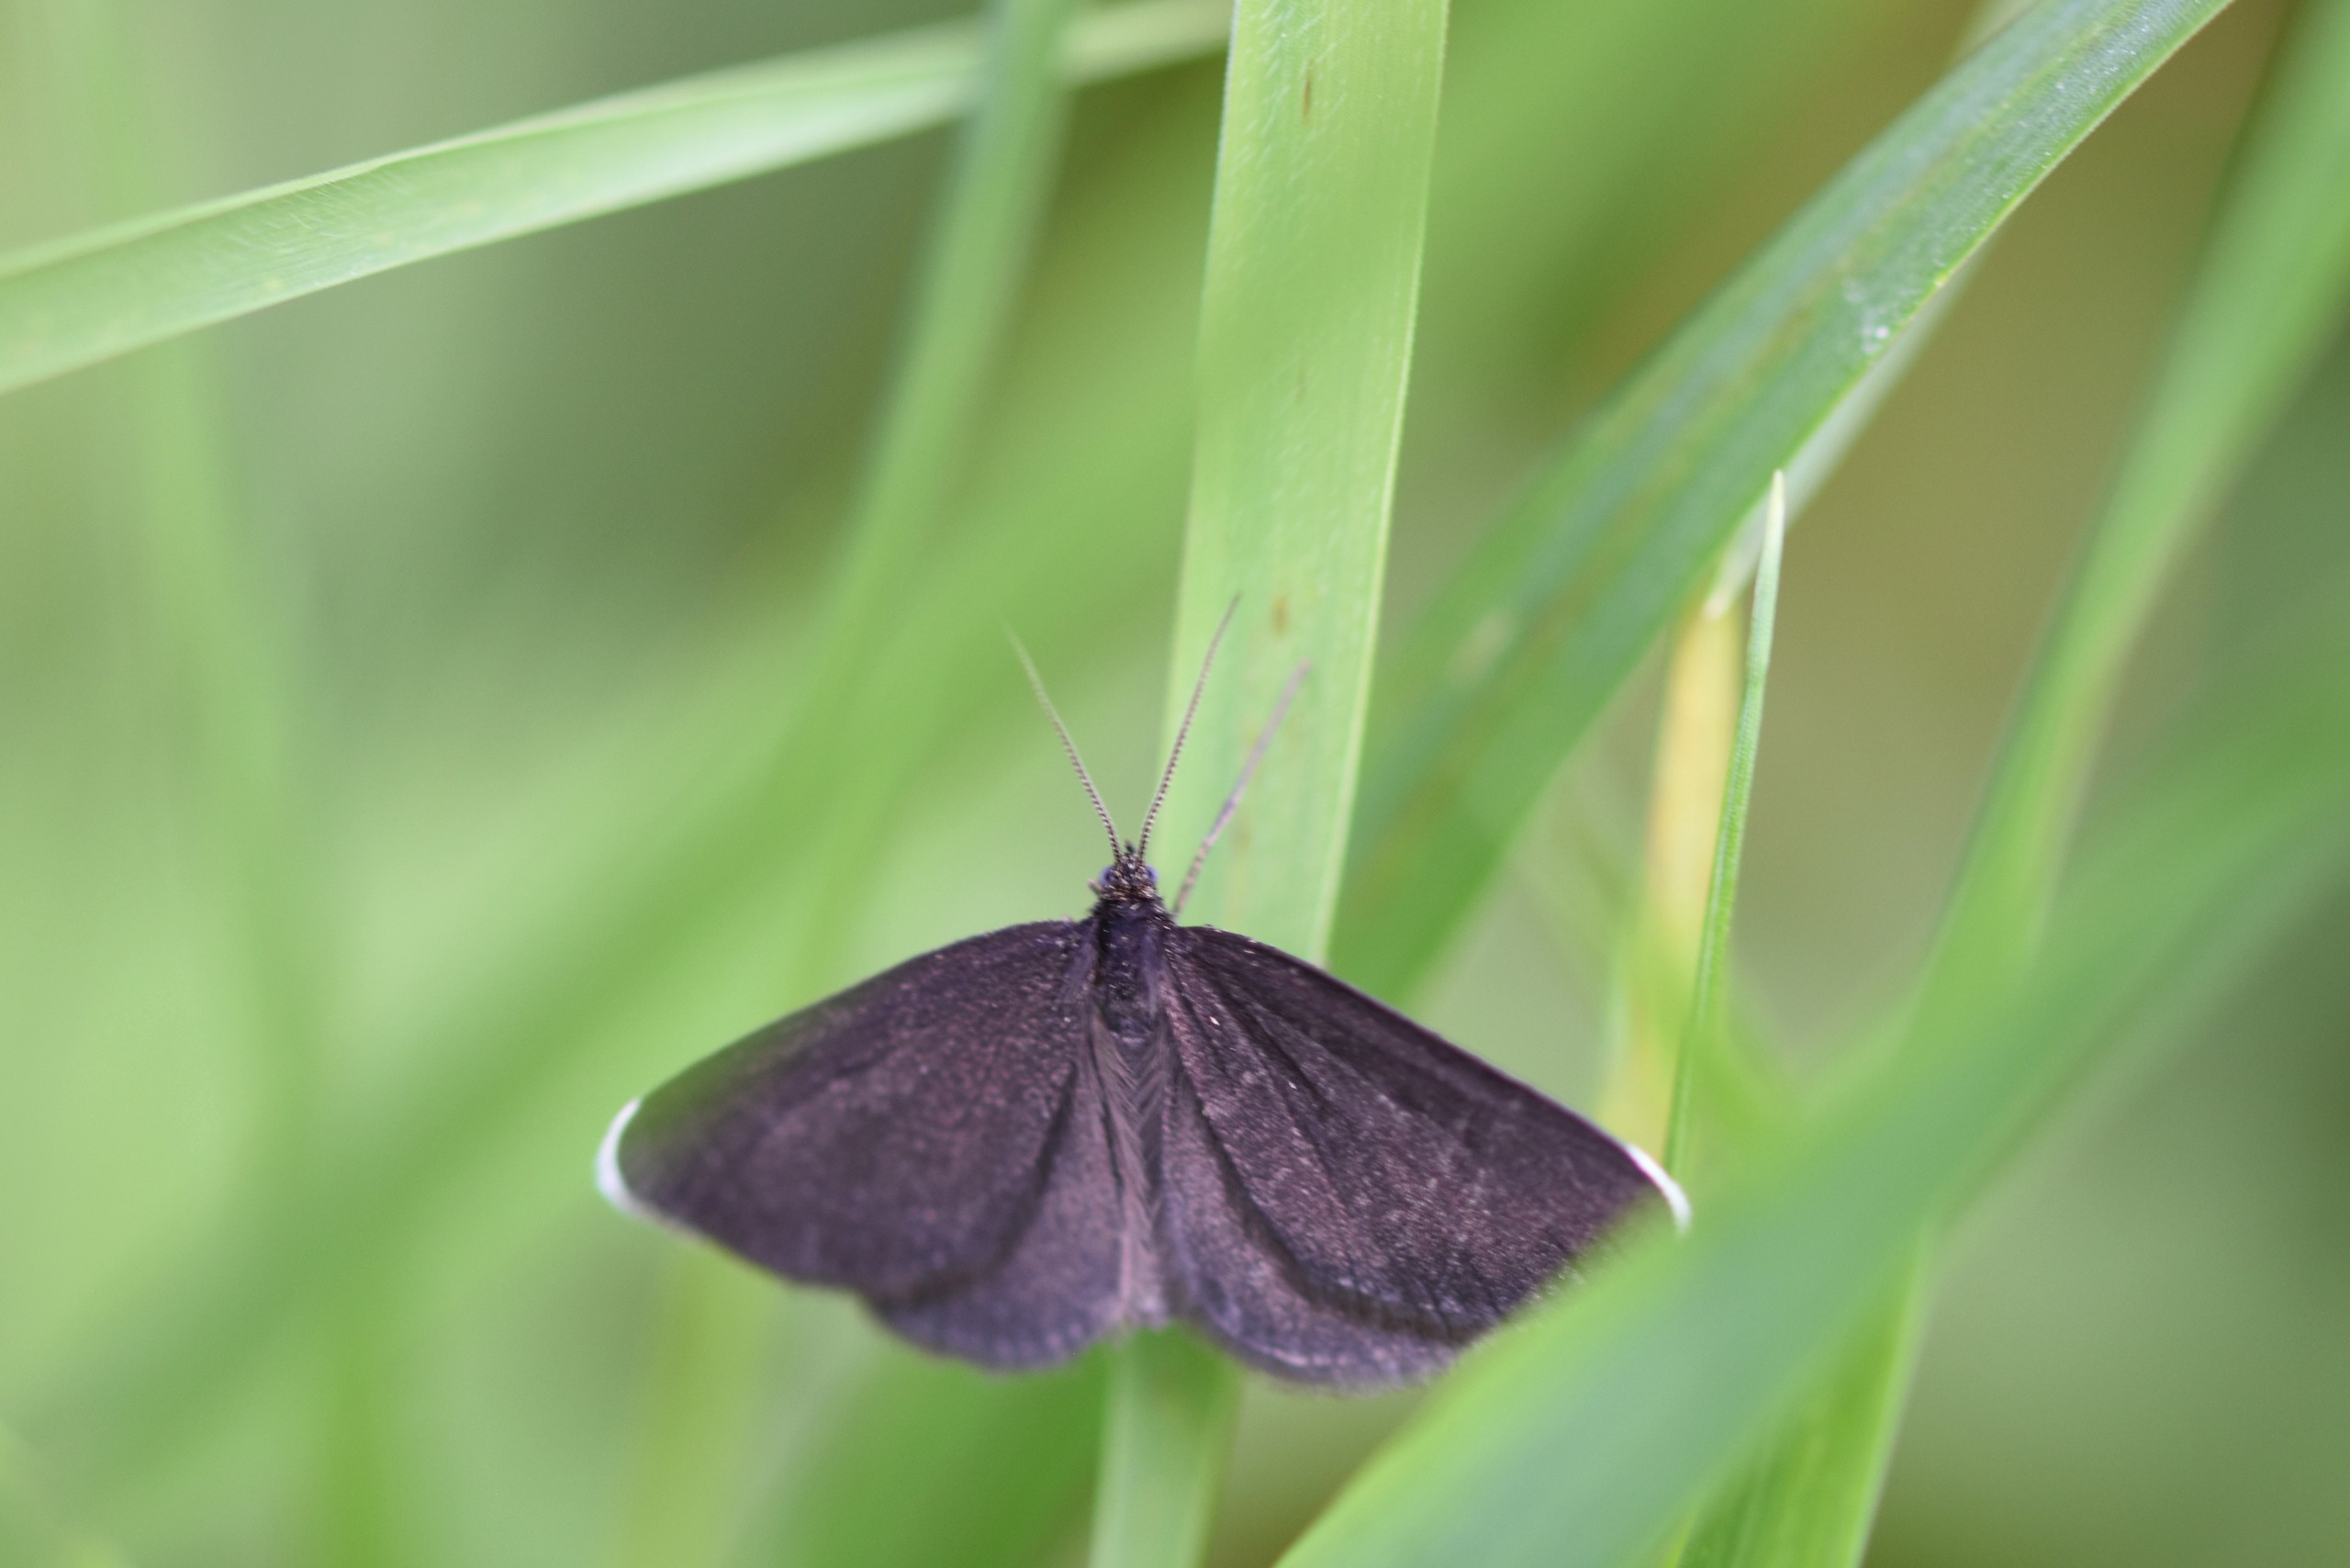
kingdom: Animalia
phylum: Arthropoda
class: Insecta
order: Lepidoptera
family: Geometridae
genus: Odezia
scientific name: Odezia atrata
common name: Sort måler
